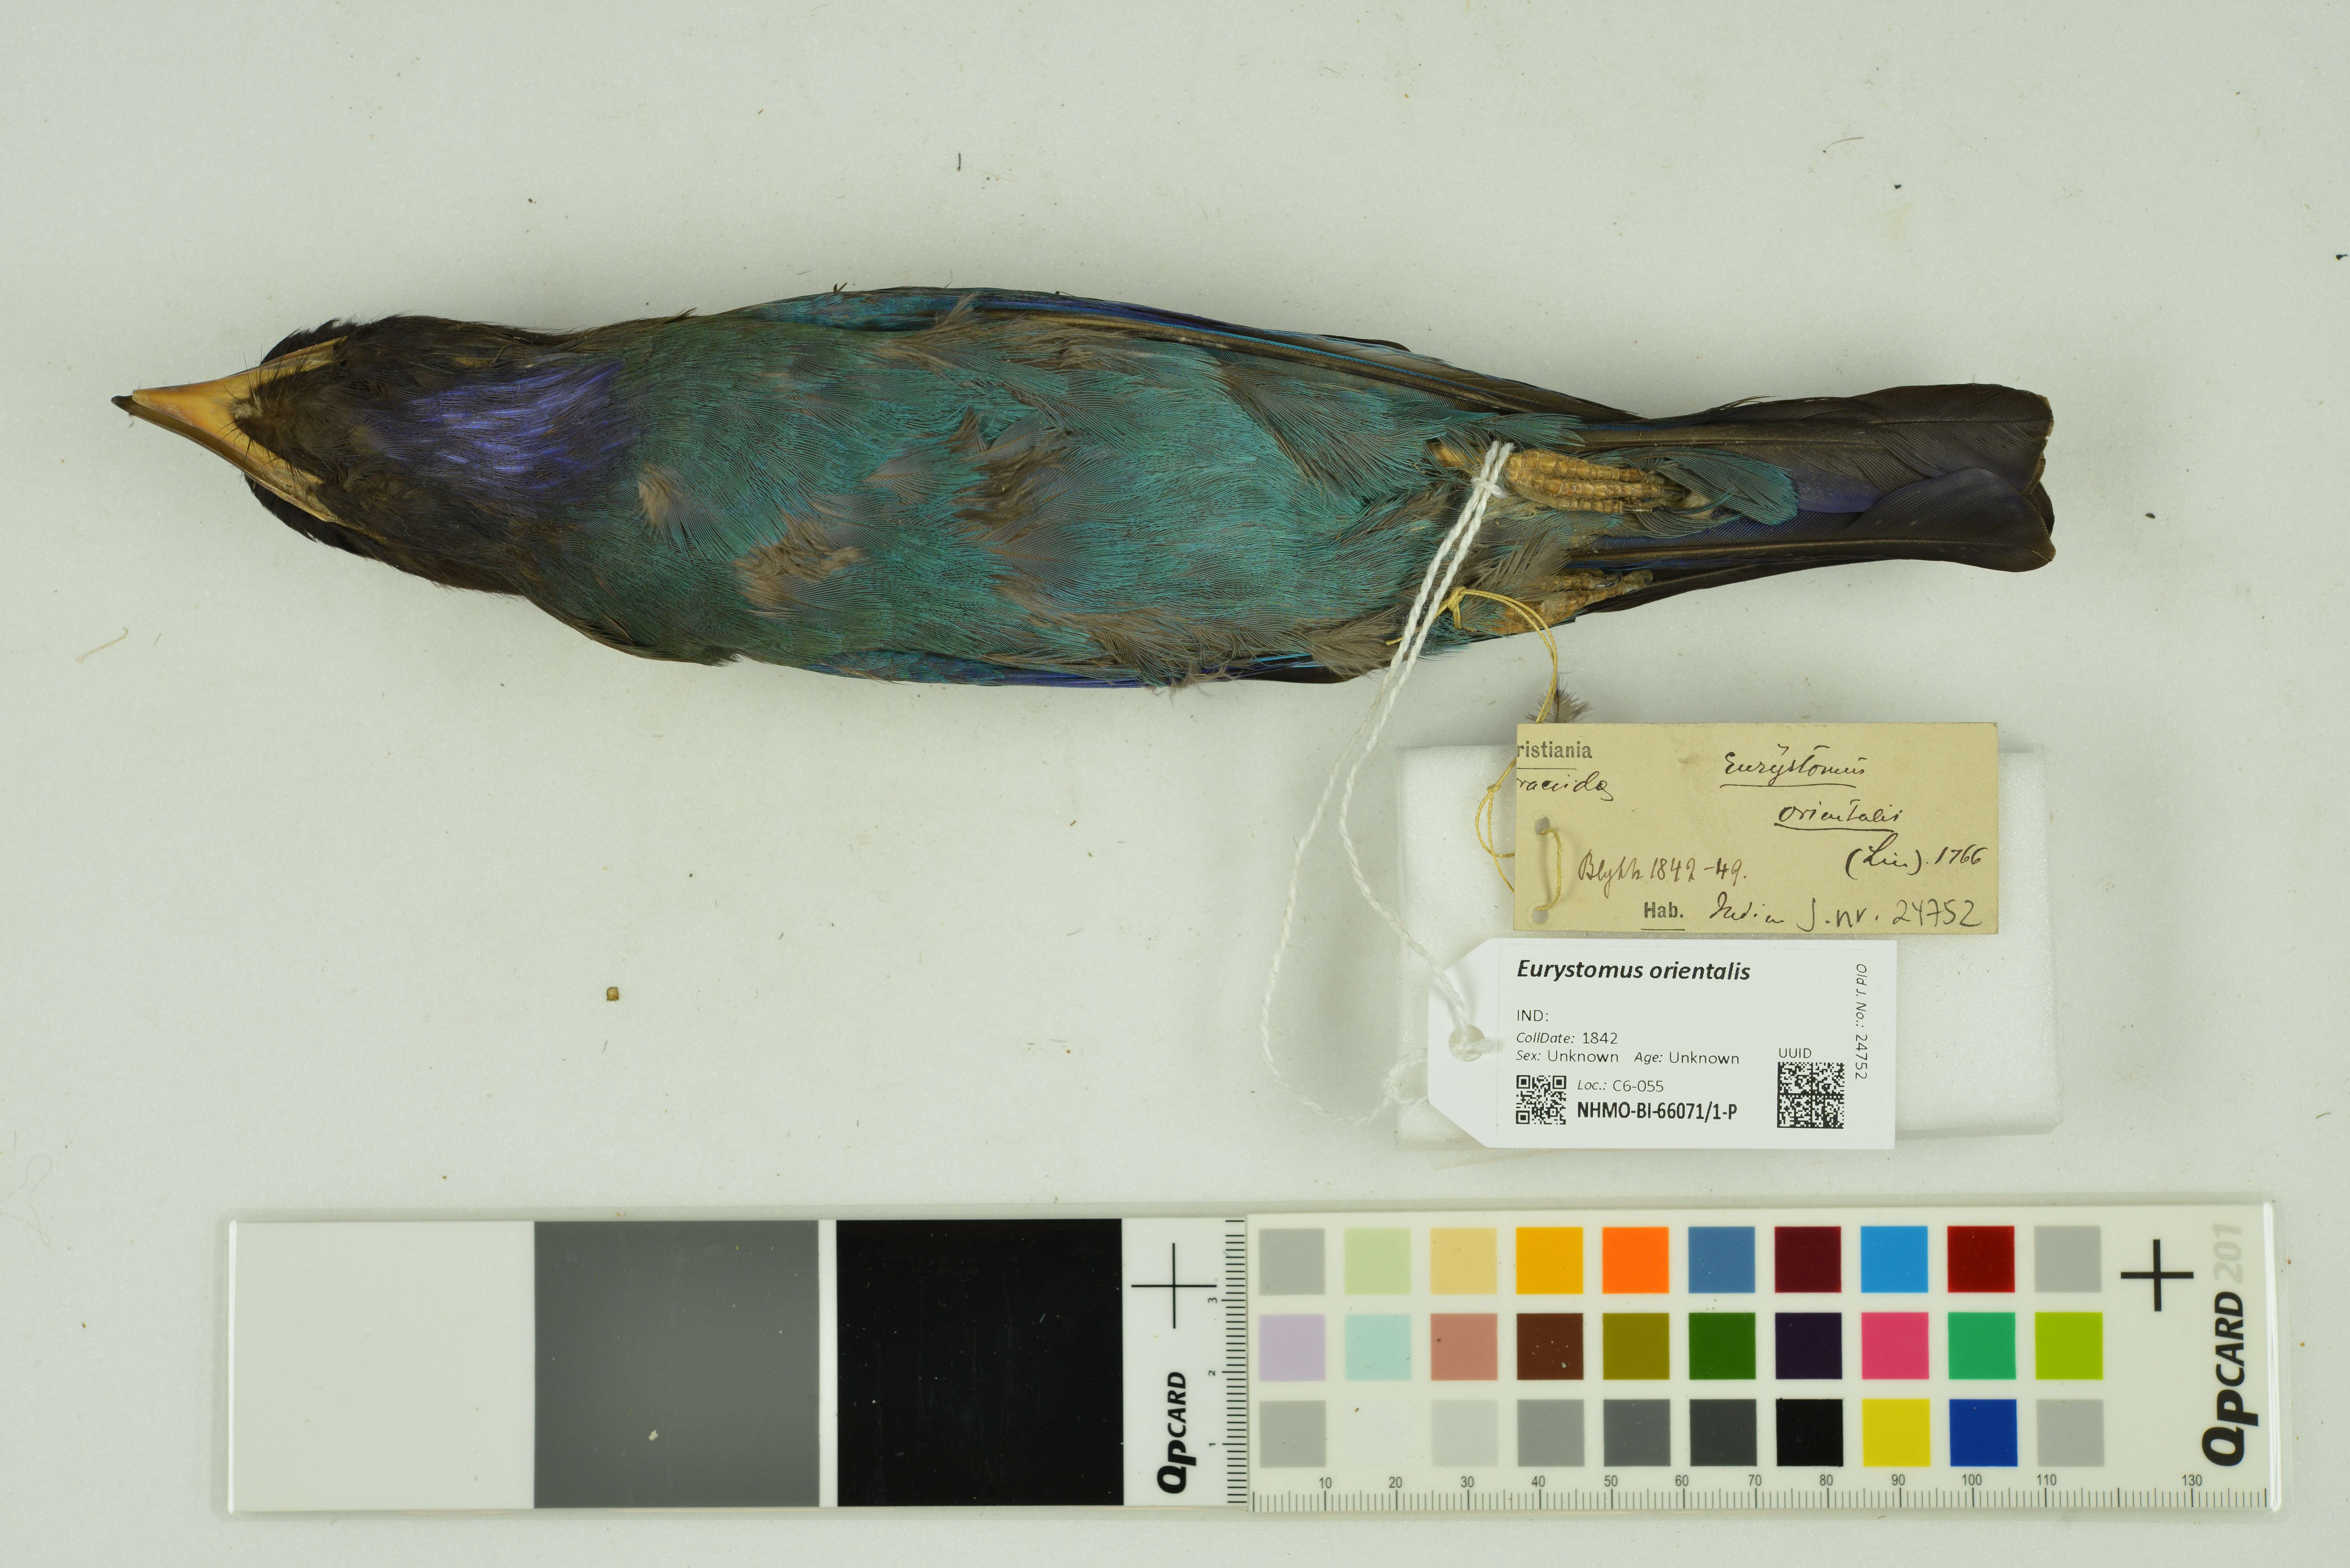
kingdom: Animalia
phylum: Chordata
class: Aves
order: Coraciiformes
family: Coraciidae
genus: Eurystomus
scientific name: Eurystomus orientalis
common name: Oriental dollarbird
